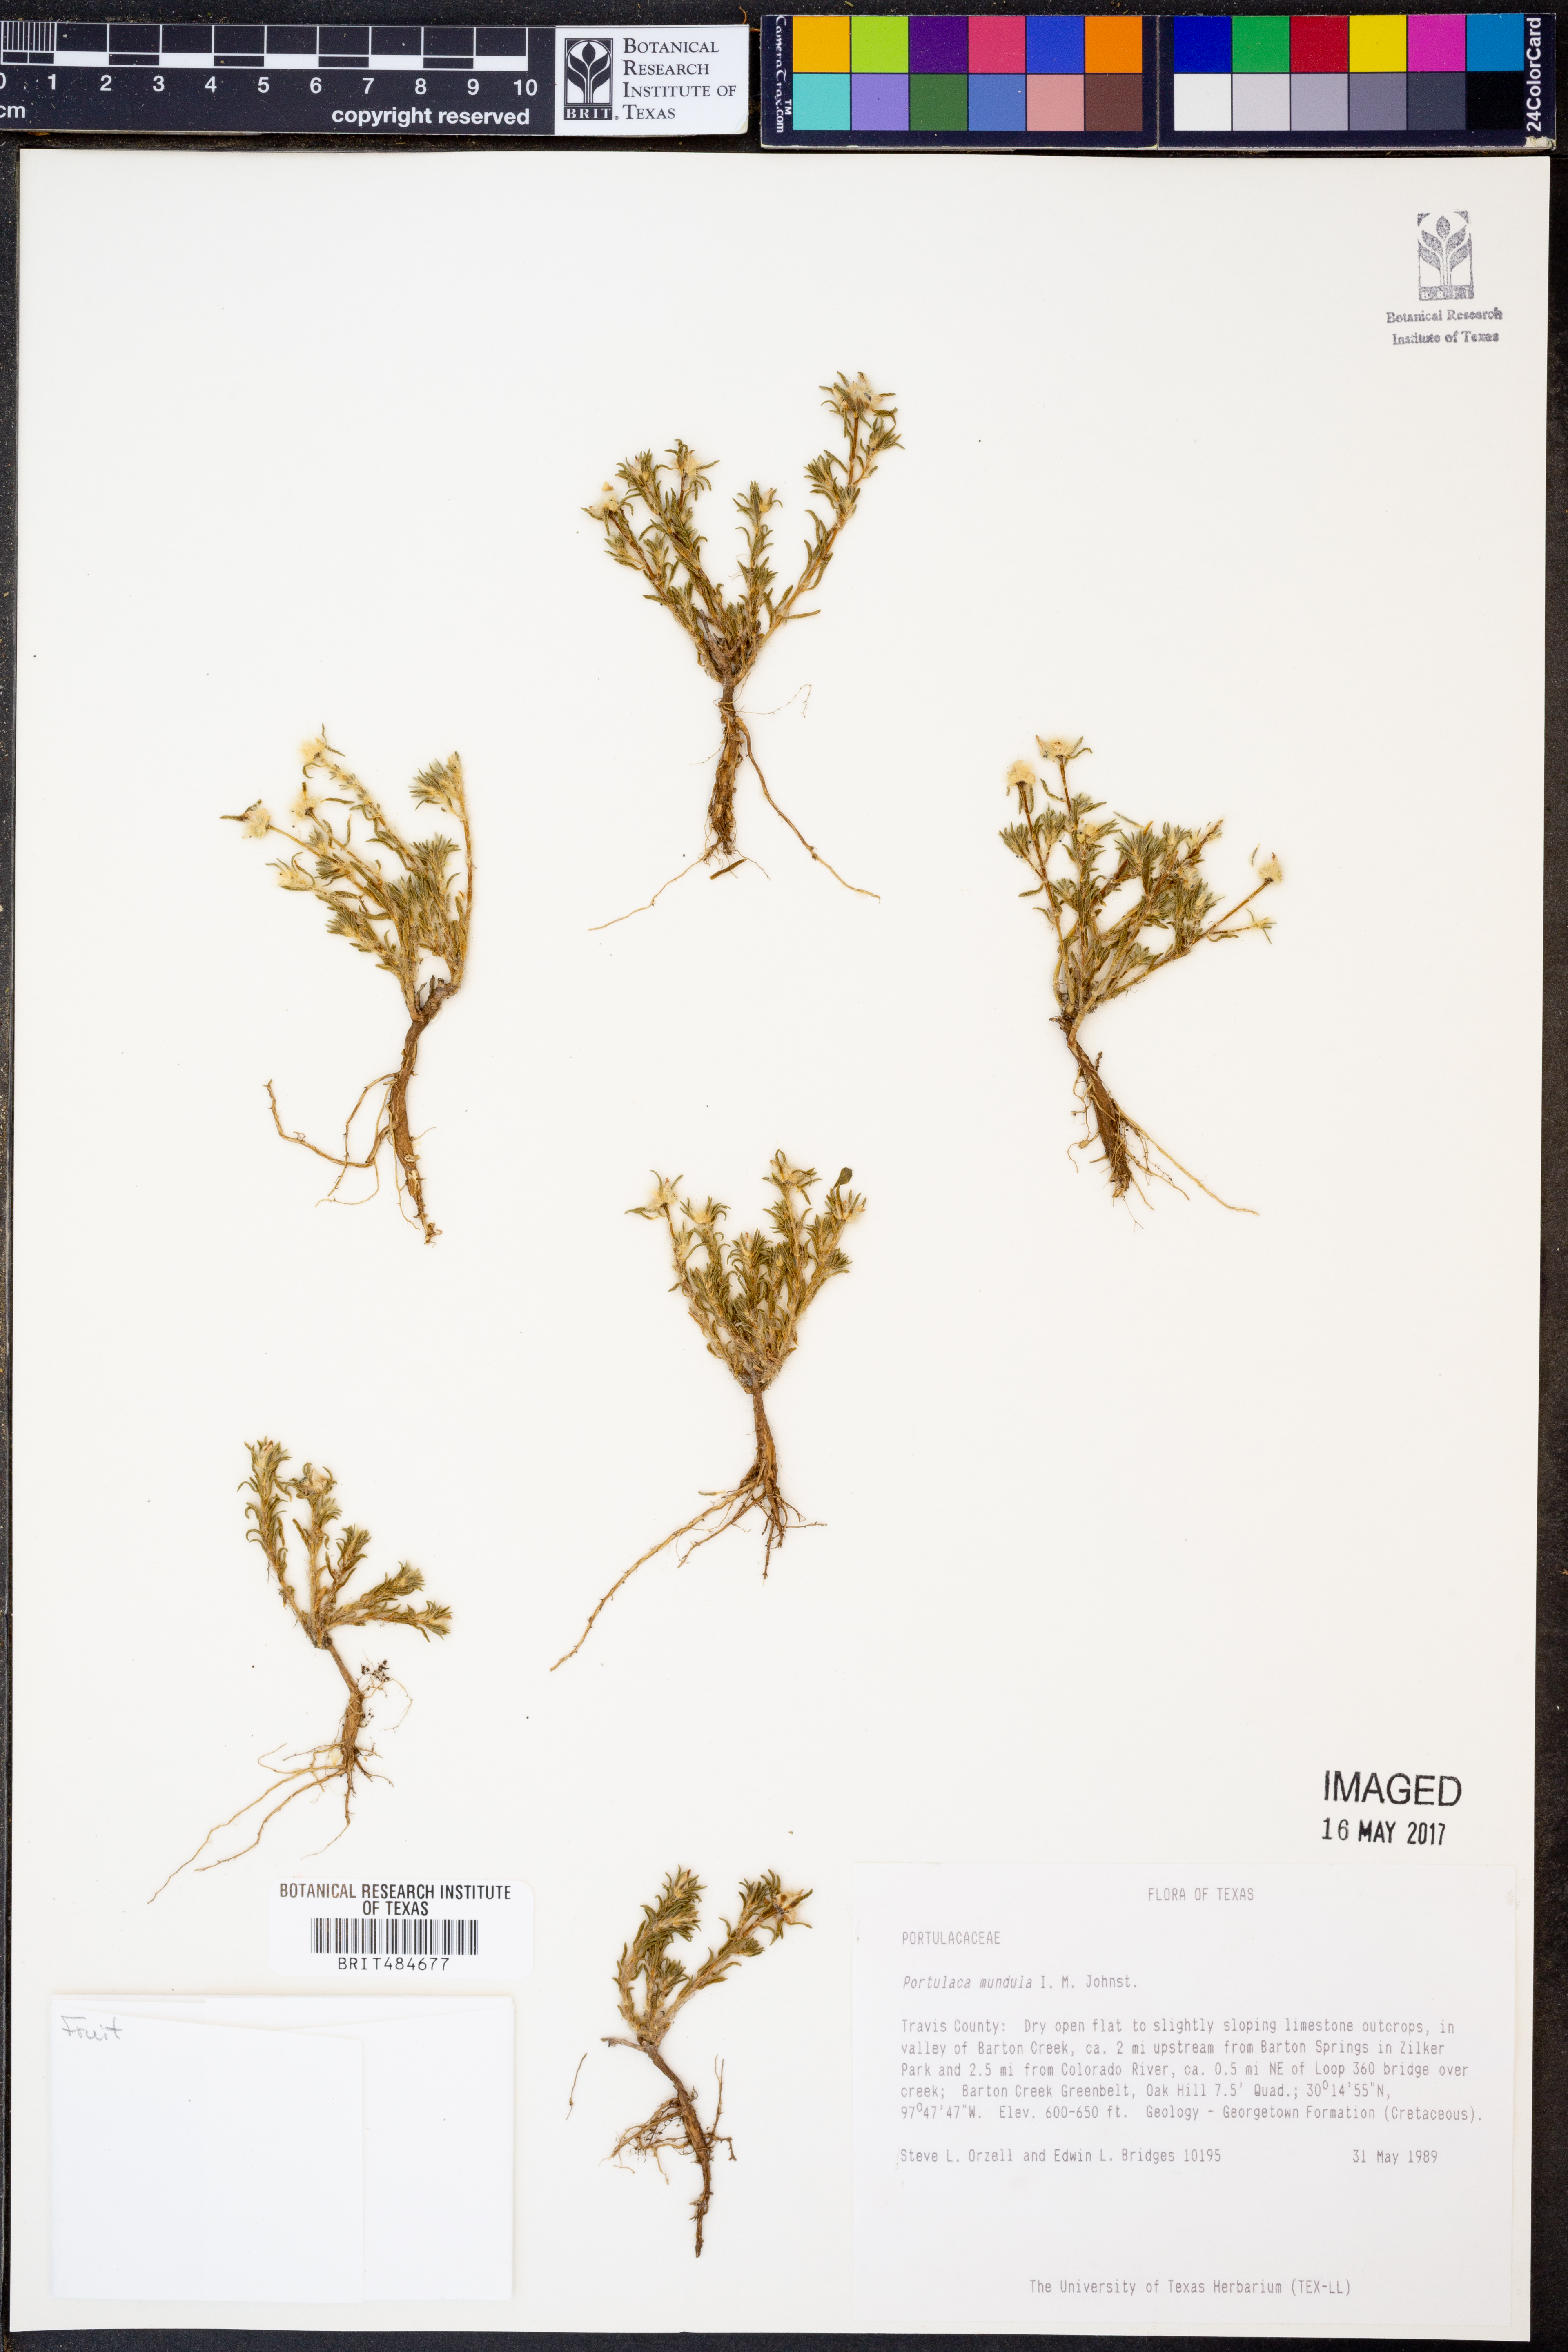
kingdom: Plantae
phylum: Tracheophyta
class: Magnoliopsida
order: Caryophyllales
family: Portulacaceae
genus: Portulaca
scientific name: Portulaca pilosa
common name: Kiss me quick
